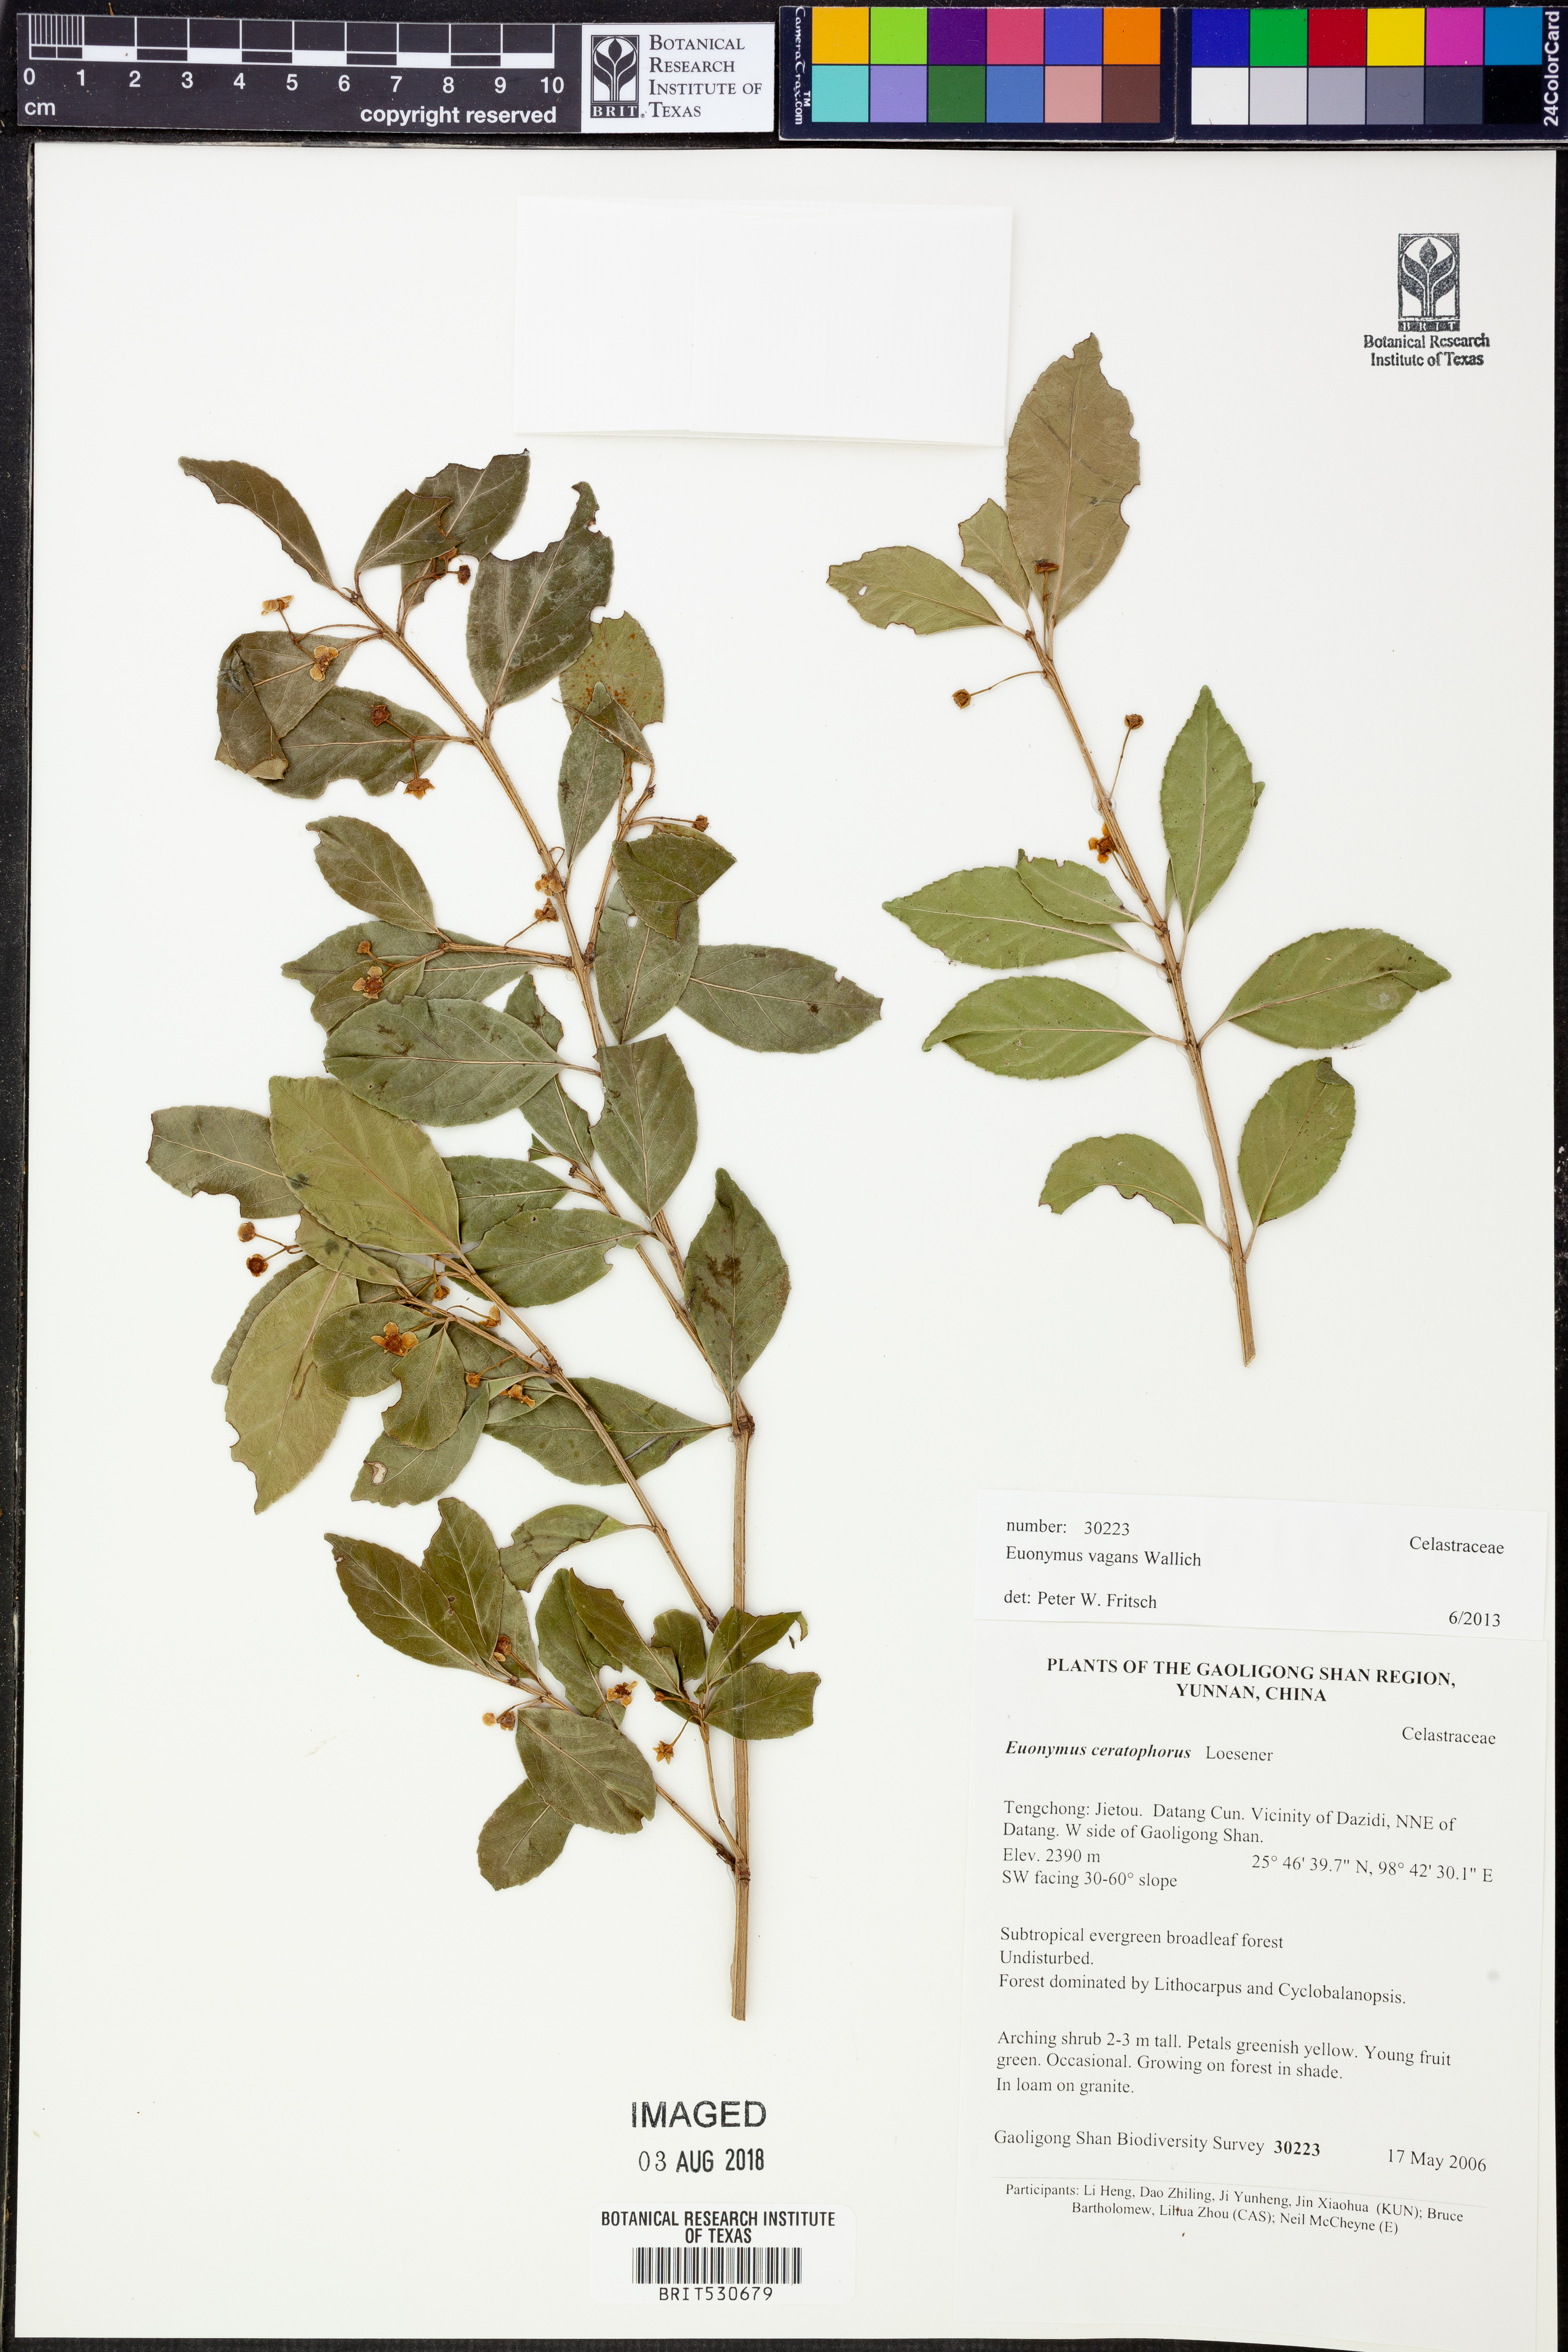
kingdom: Plantae
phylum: Tracheophyta
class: Magnoliopsida
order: Celastrales
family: Celastraceae
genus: Euonymus
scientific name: Euonymus vagans
